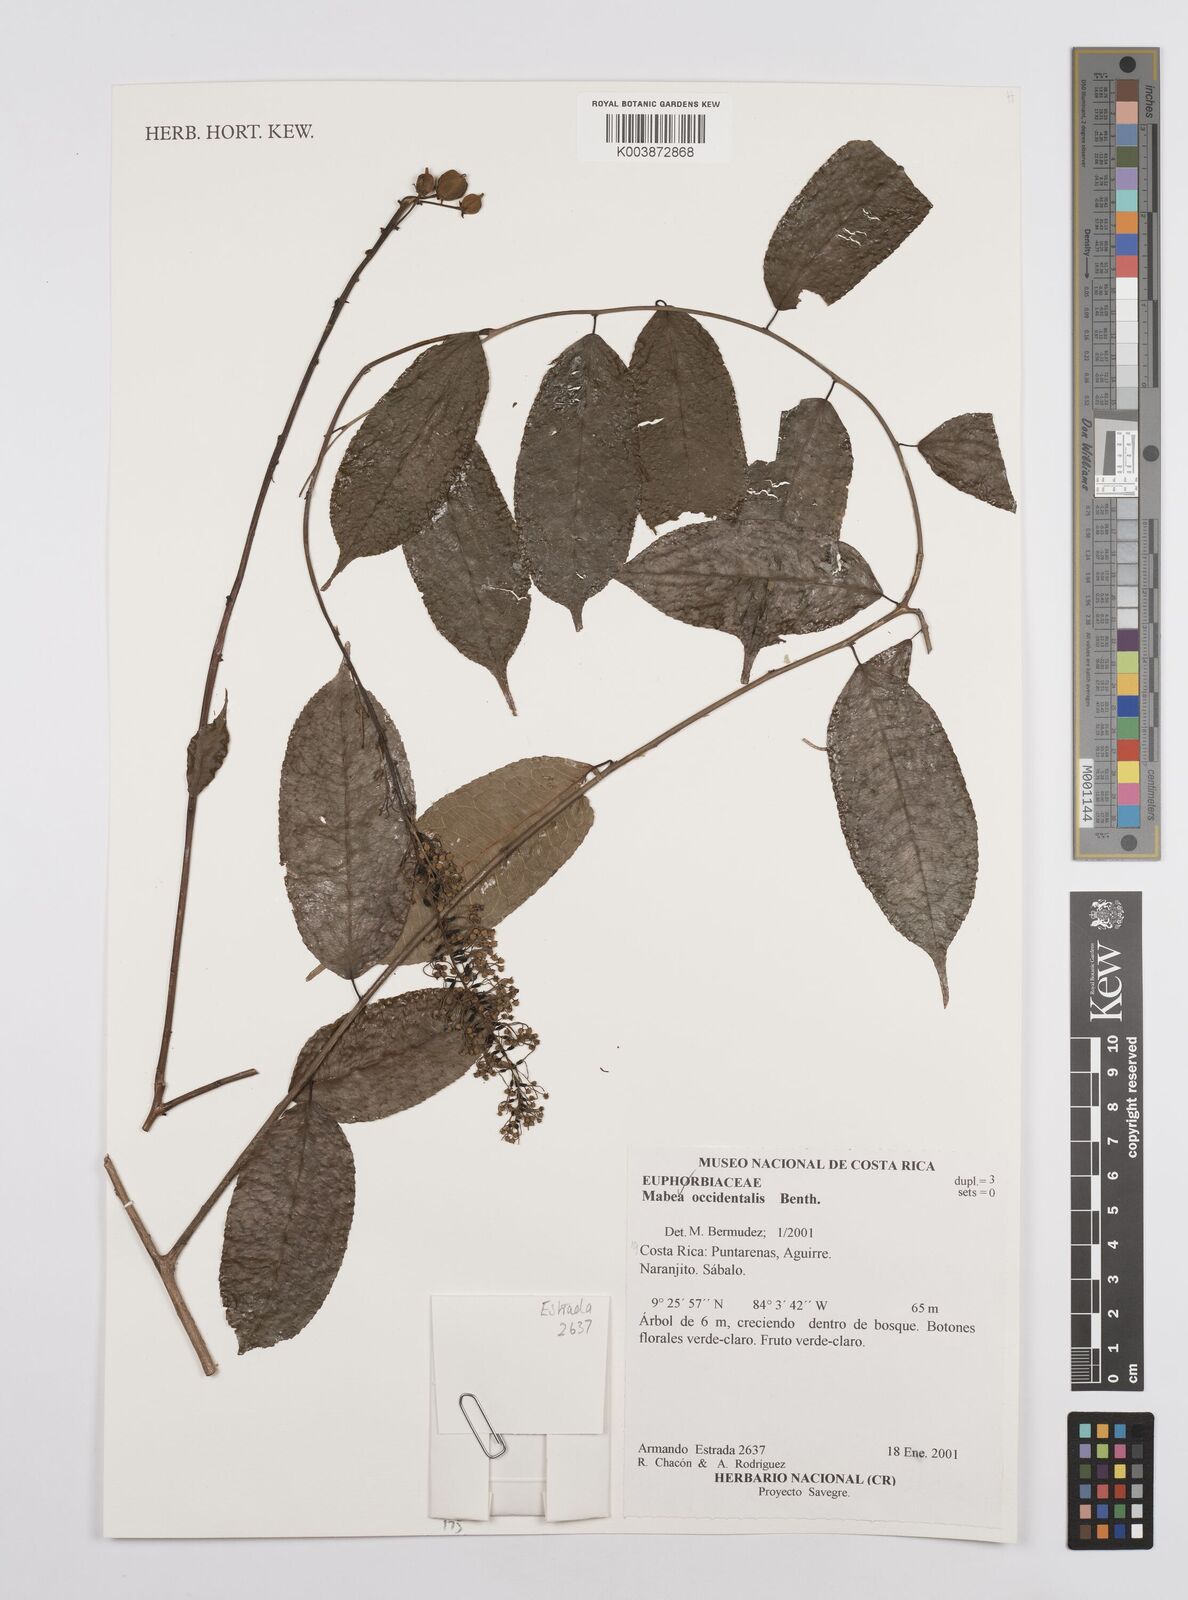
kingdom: Plantae
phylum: Tracheophyta
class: Magnoliopsida
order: Malpighiales
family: Euphorbiaceae
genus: Mabea
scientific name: Mabea occidentalis
